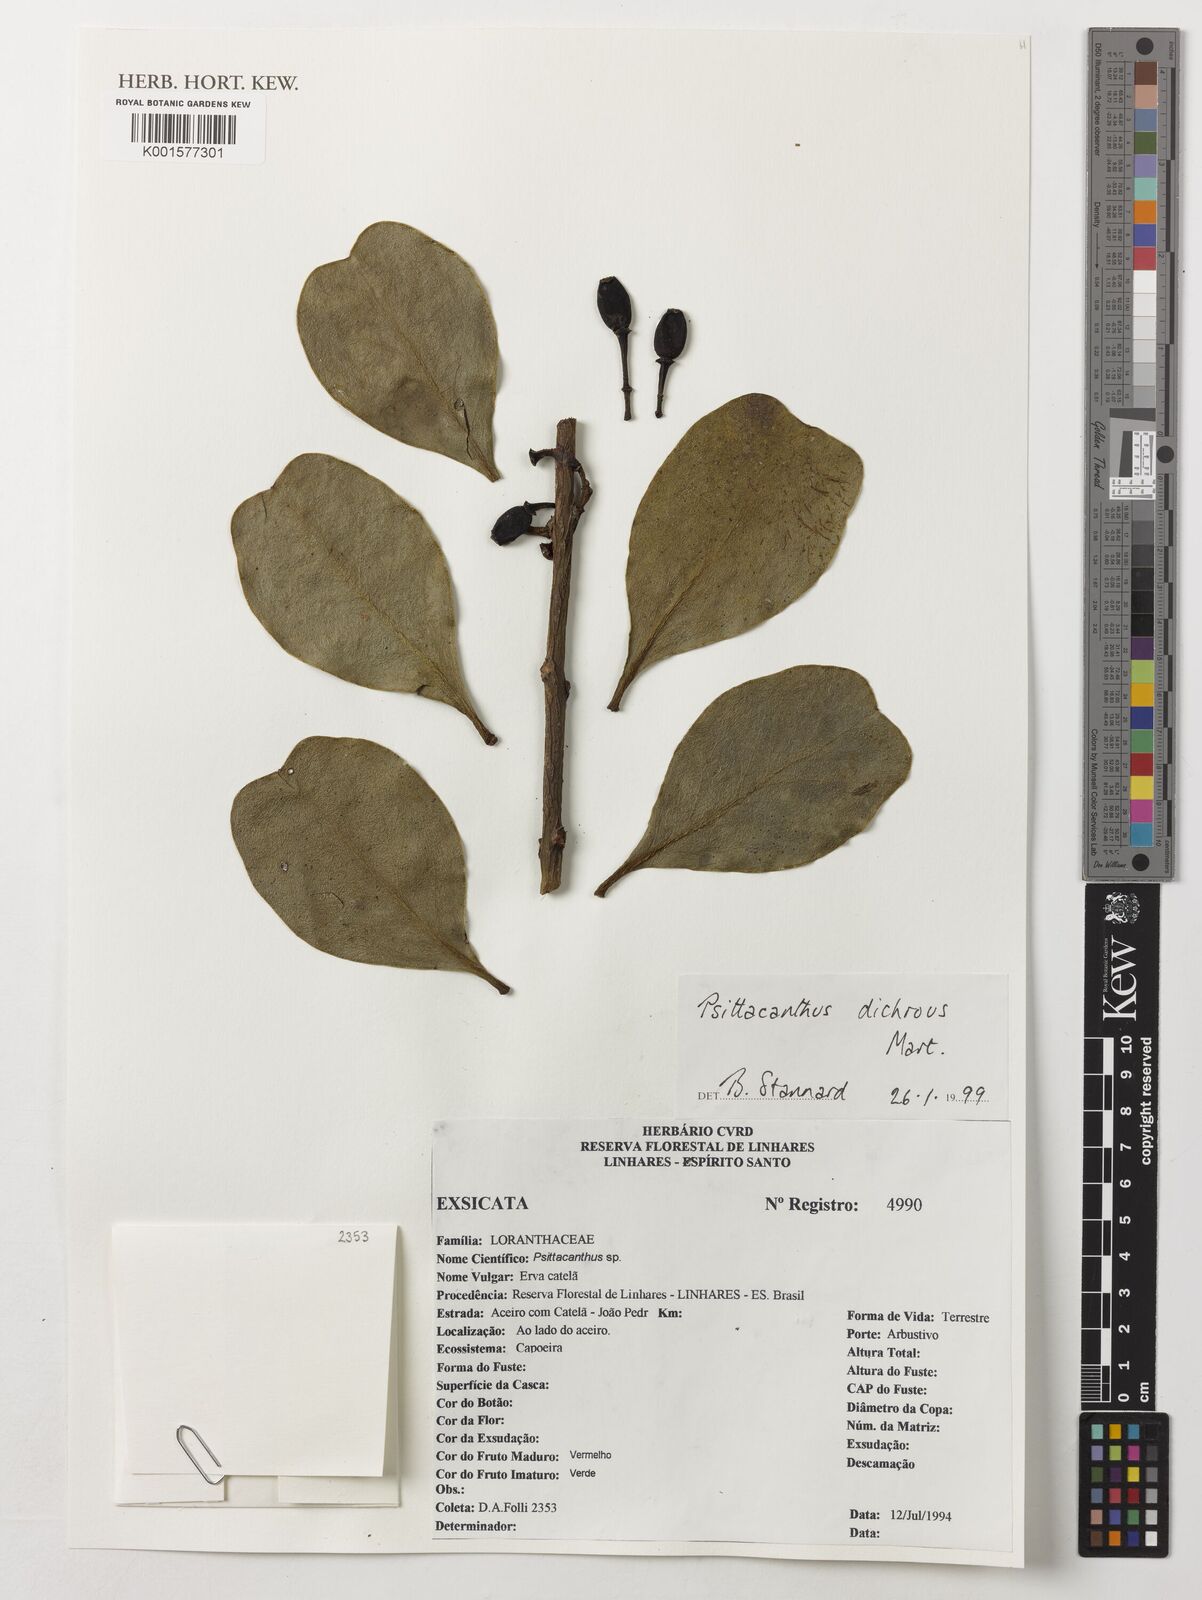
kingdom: Plantae
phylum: Tracheophyta
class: Magnoliopsida
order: Santalales
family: Loranthaceae
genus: Psittacanthus
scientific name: Psittacanthus dichrous
